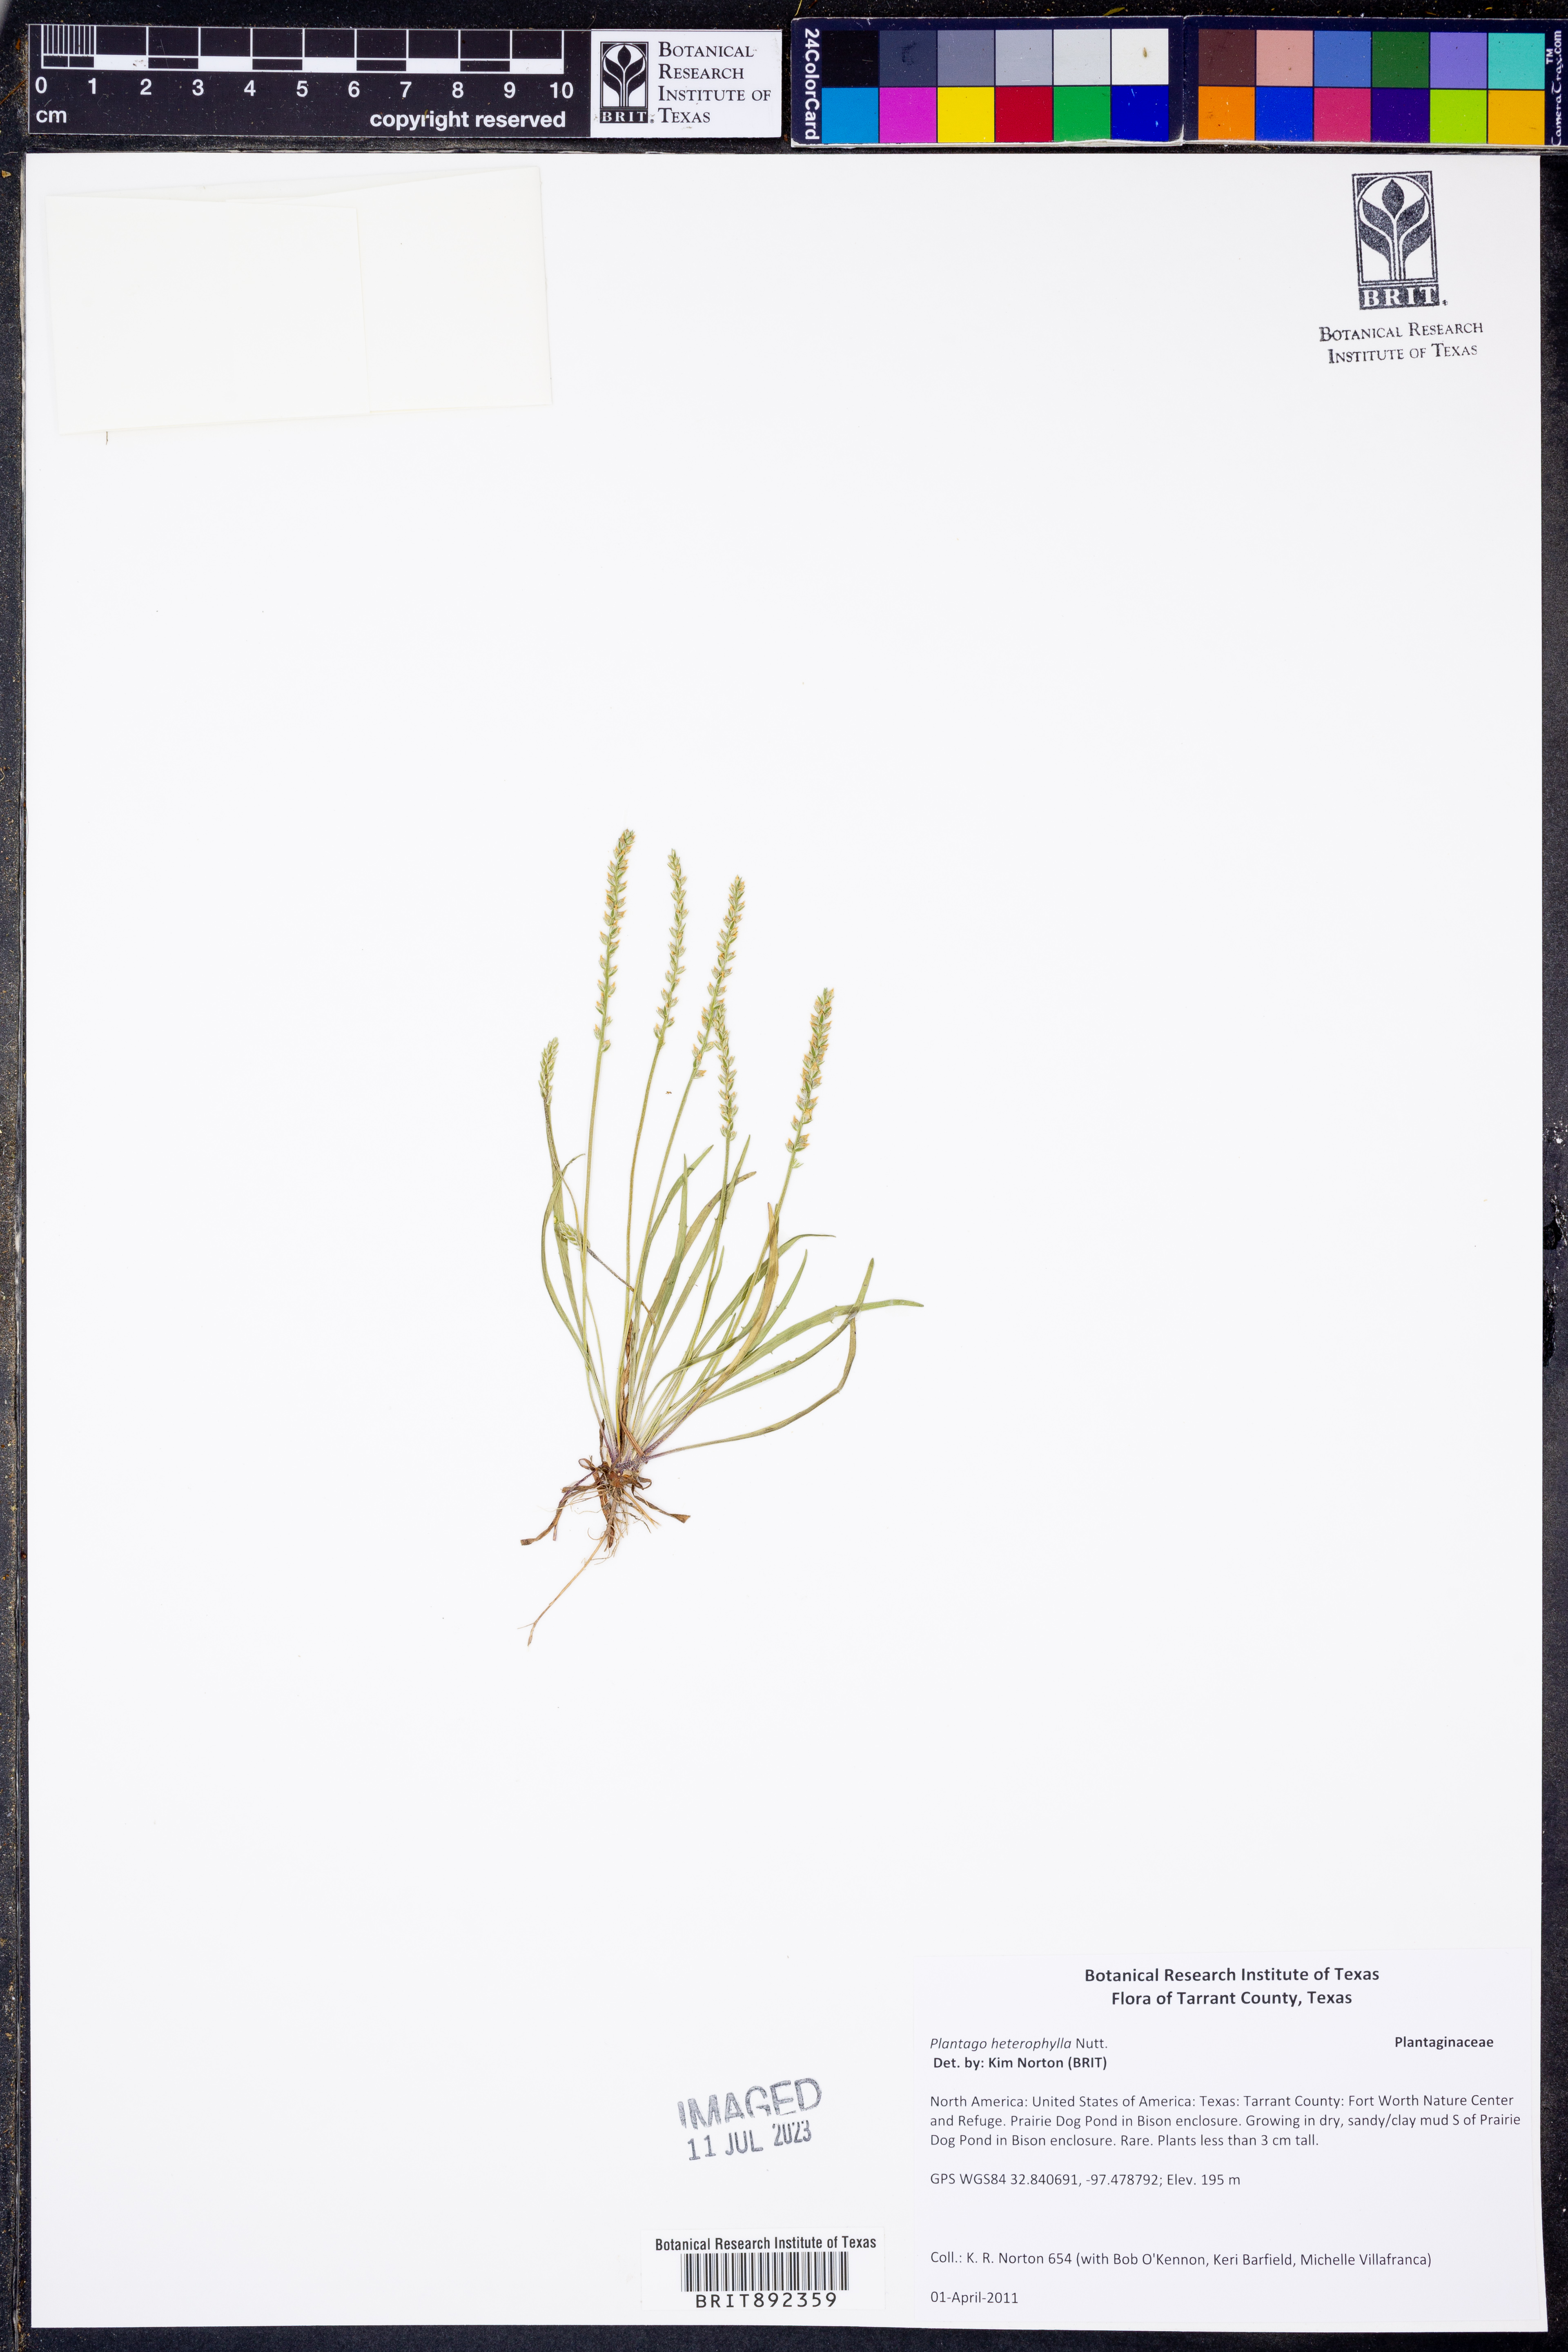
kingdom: Plantae
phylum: Tracheophyta
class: Magnoliopsida
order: Lamiales
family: Plantaginaceae
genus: Plantago
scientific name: Plantago heterophylla
